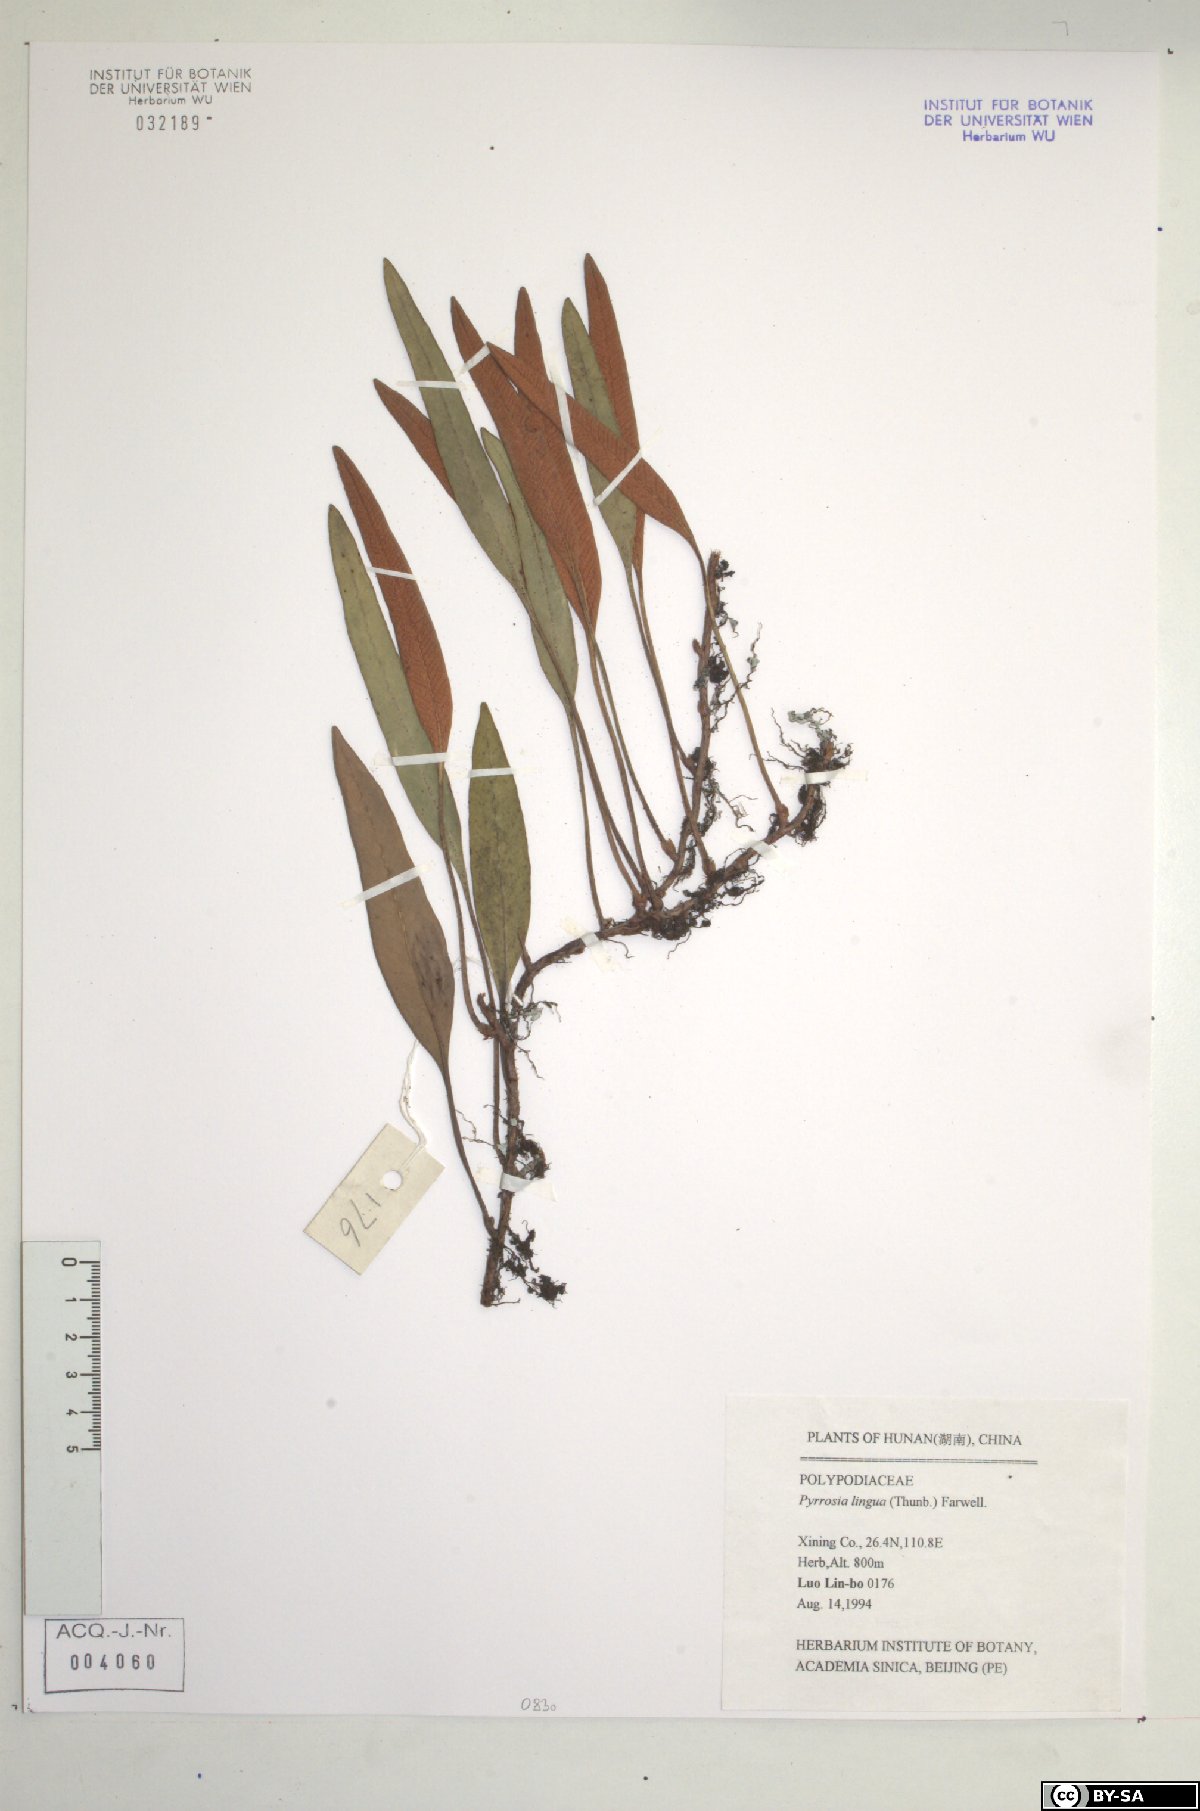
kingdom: Plantae
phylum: Tracheophyta
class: Polypodiopsida
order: Polypodiales
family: Polypodiaceae
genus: Pyrrosia
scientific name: Pyrrosia lingua
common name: Felt fern
